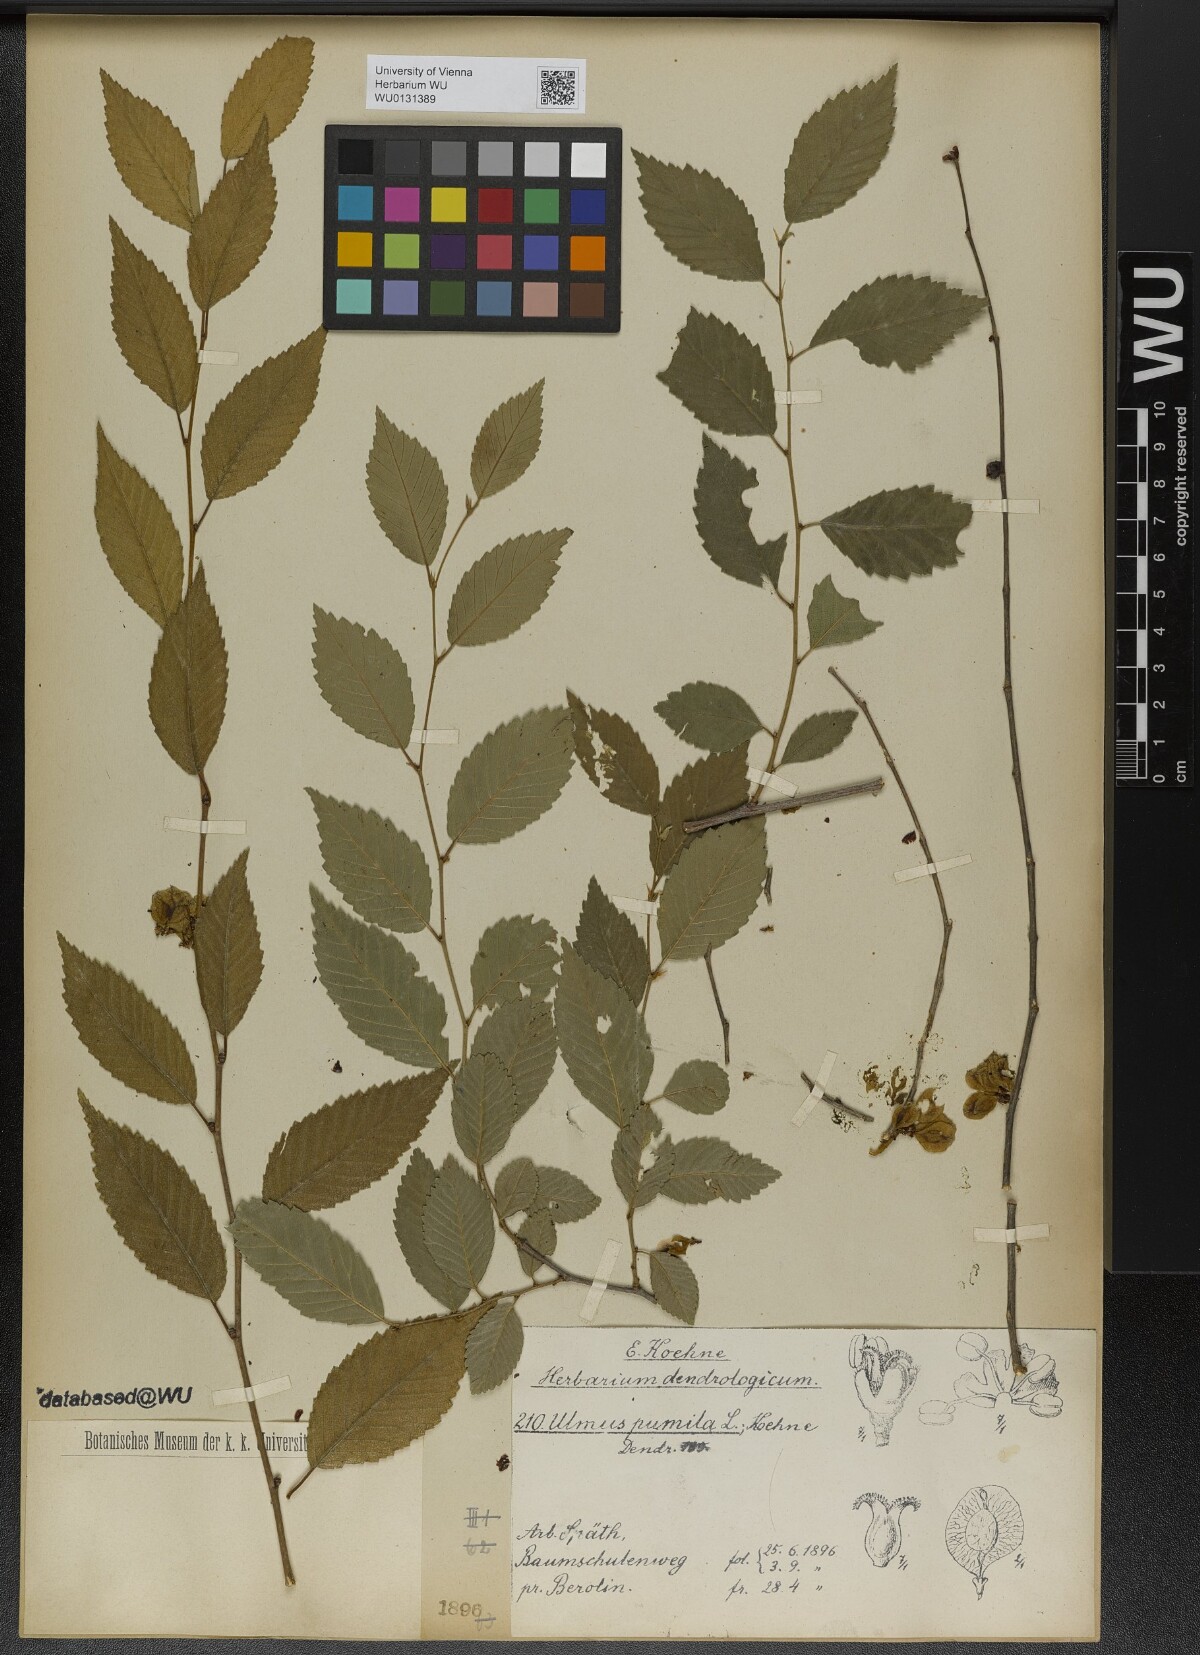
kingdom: Plantae
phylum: Tracheophyta
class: Magnoliopsida
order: Rosales
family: Ulmaceae
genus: Ulmus
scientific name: Ulmus pumila
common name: Siberian elm
